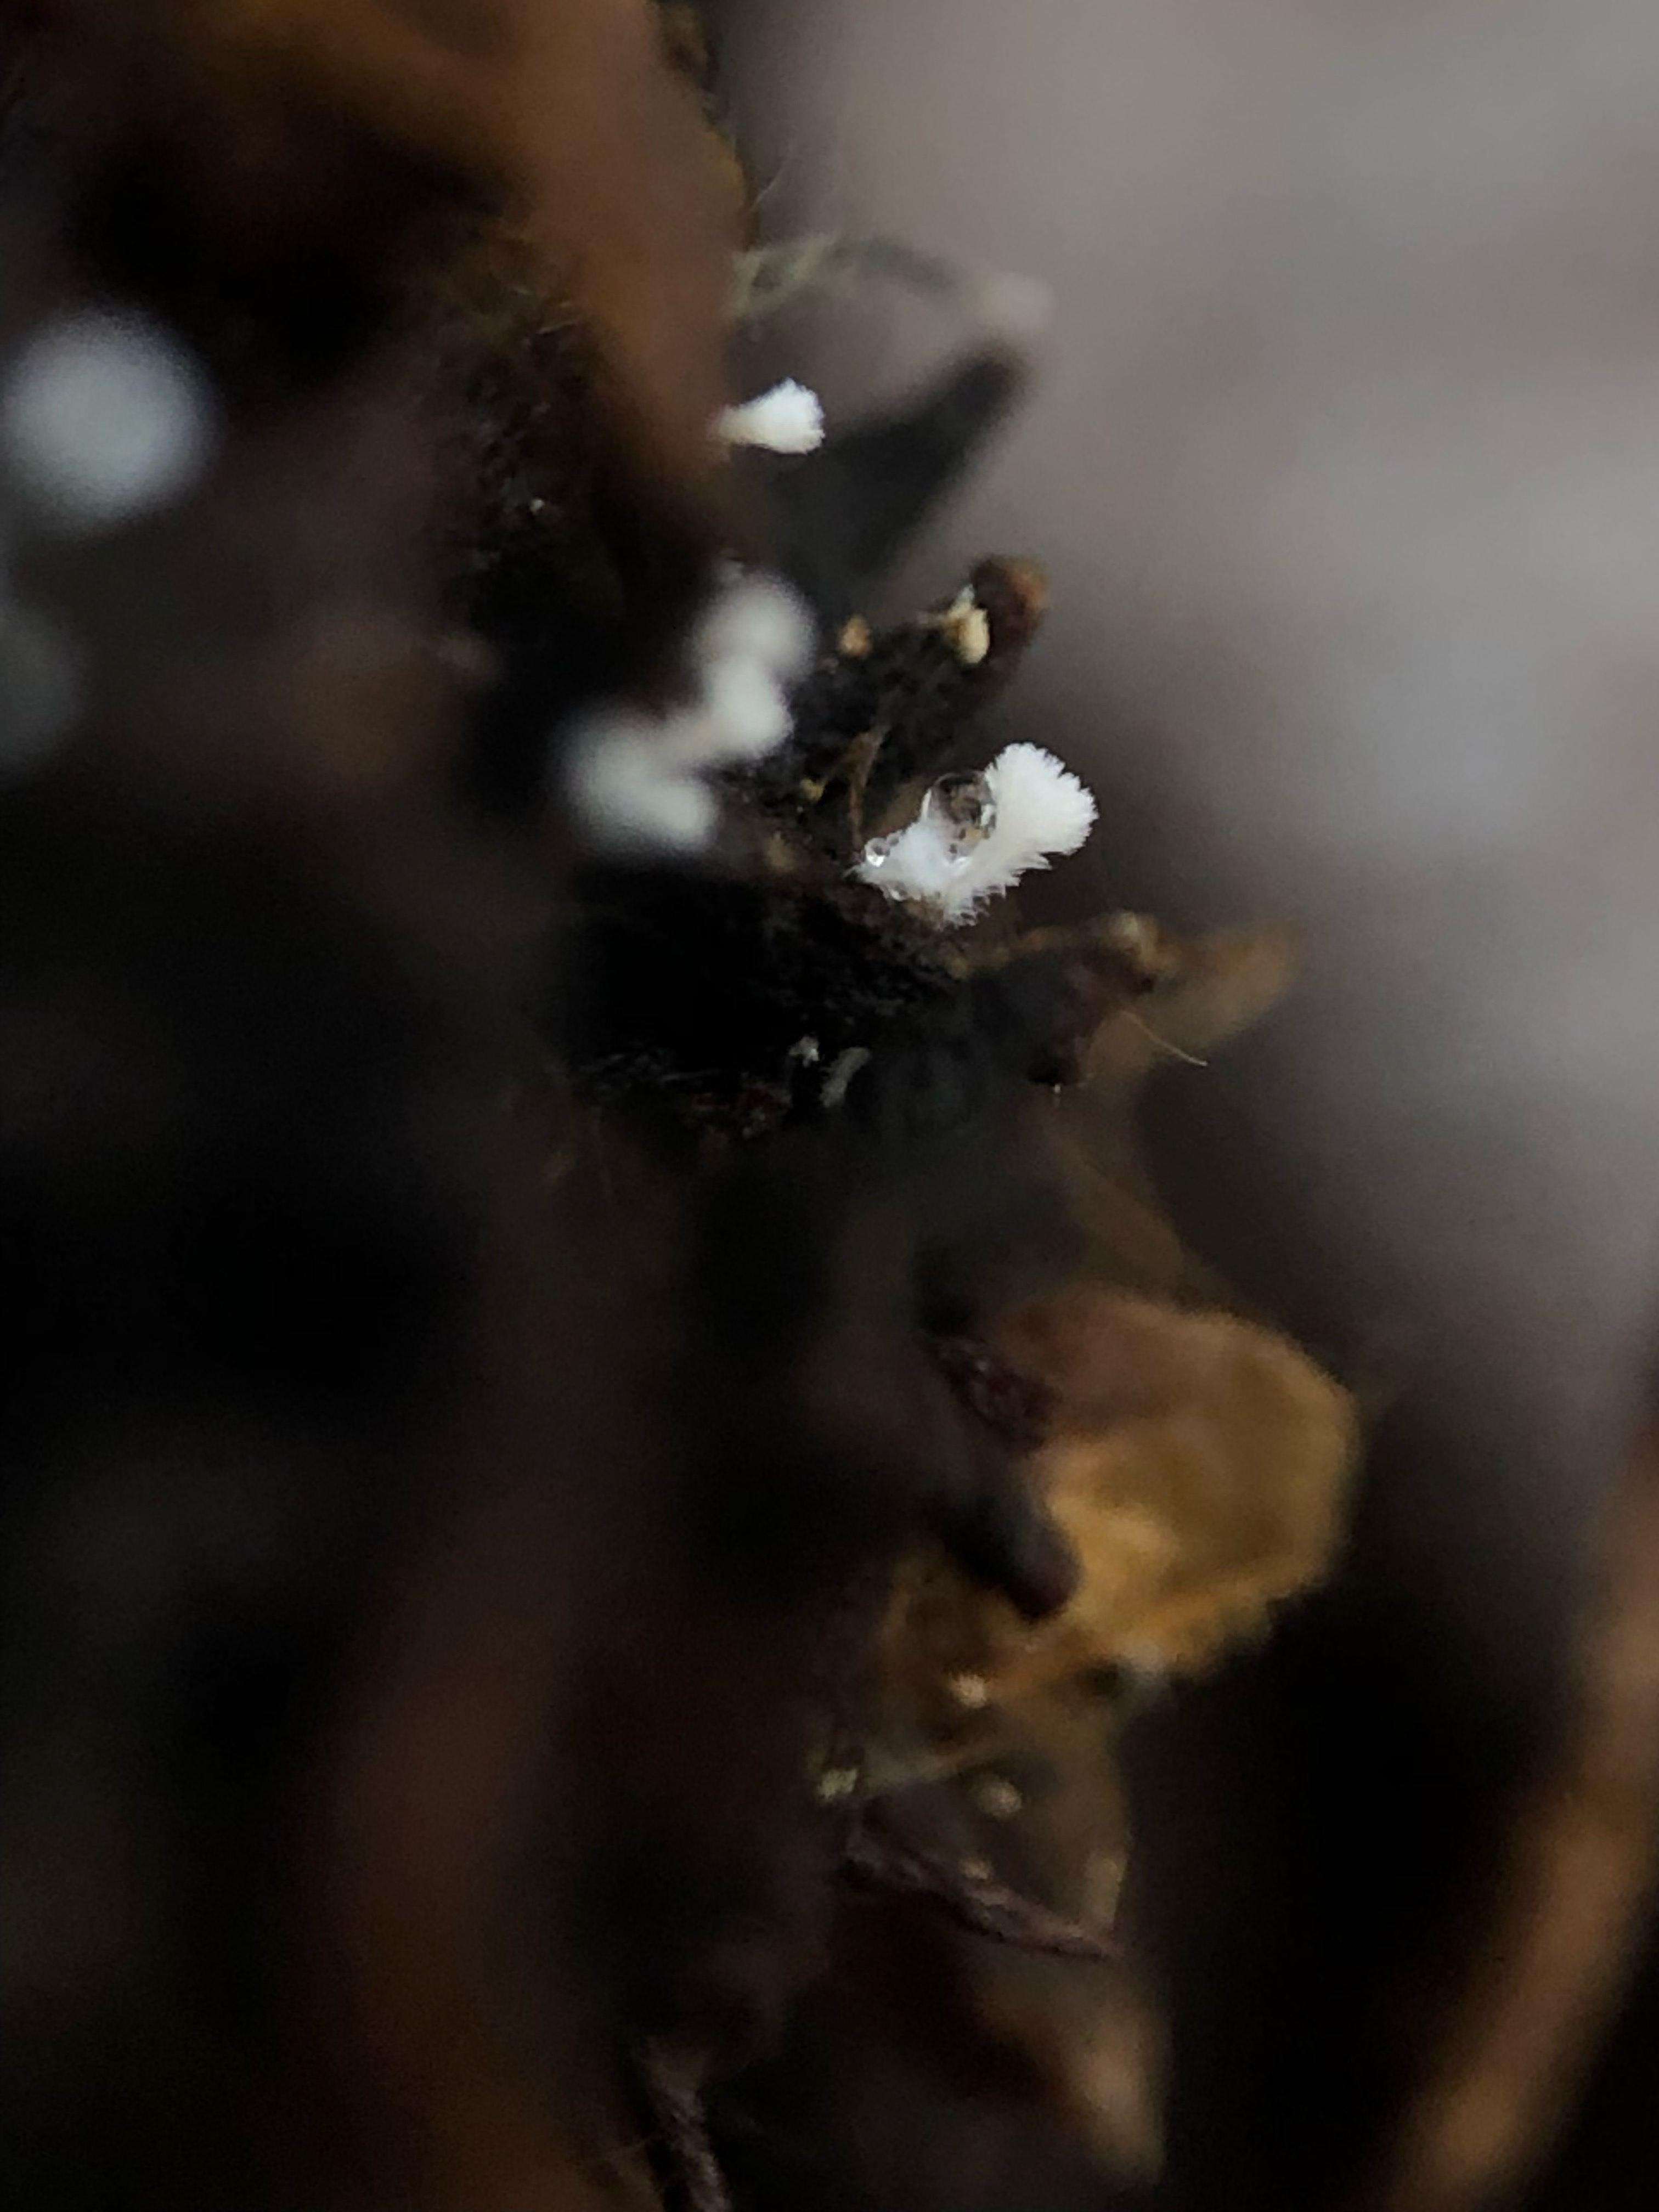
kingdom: Fungi
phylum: Ascomycota
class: Leotiomycetes
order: Helotiales
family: Lachnaceae
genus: Lachnum
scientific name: Lachnum virgineum
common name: jomfru-frynseskive
